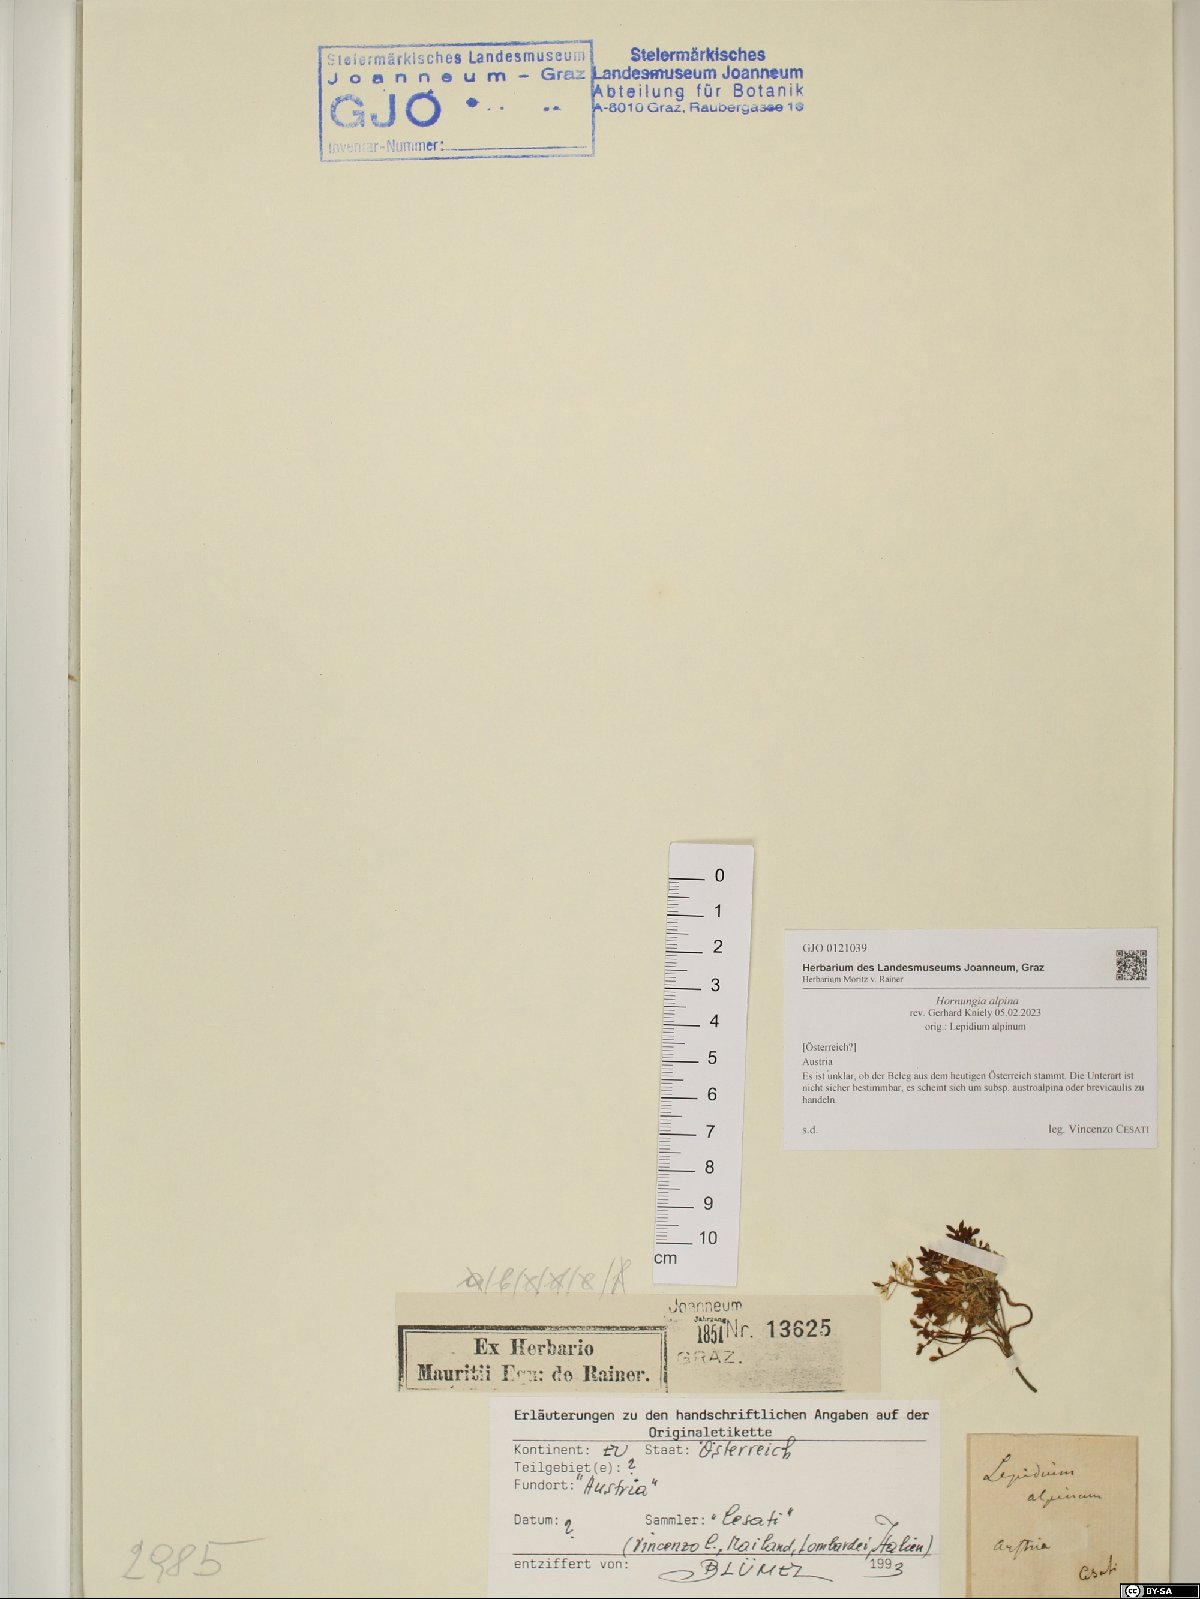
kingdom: Plantae
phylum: Tracheophyta
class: Magnoliopsida
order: Brassicales
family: Brassicaceae
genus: Hornungia
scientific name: Hornungia alpina
